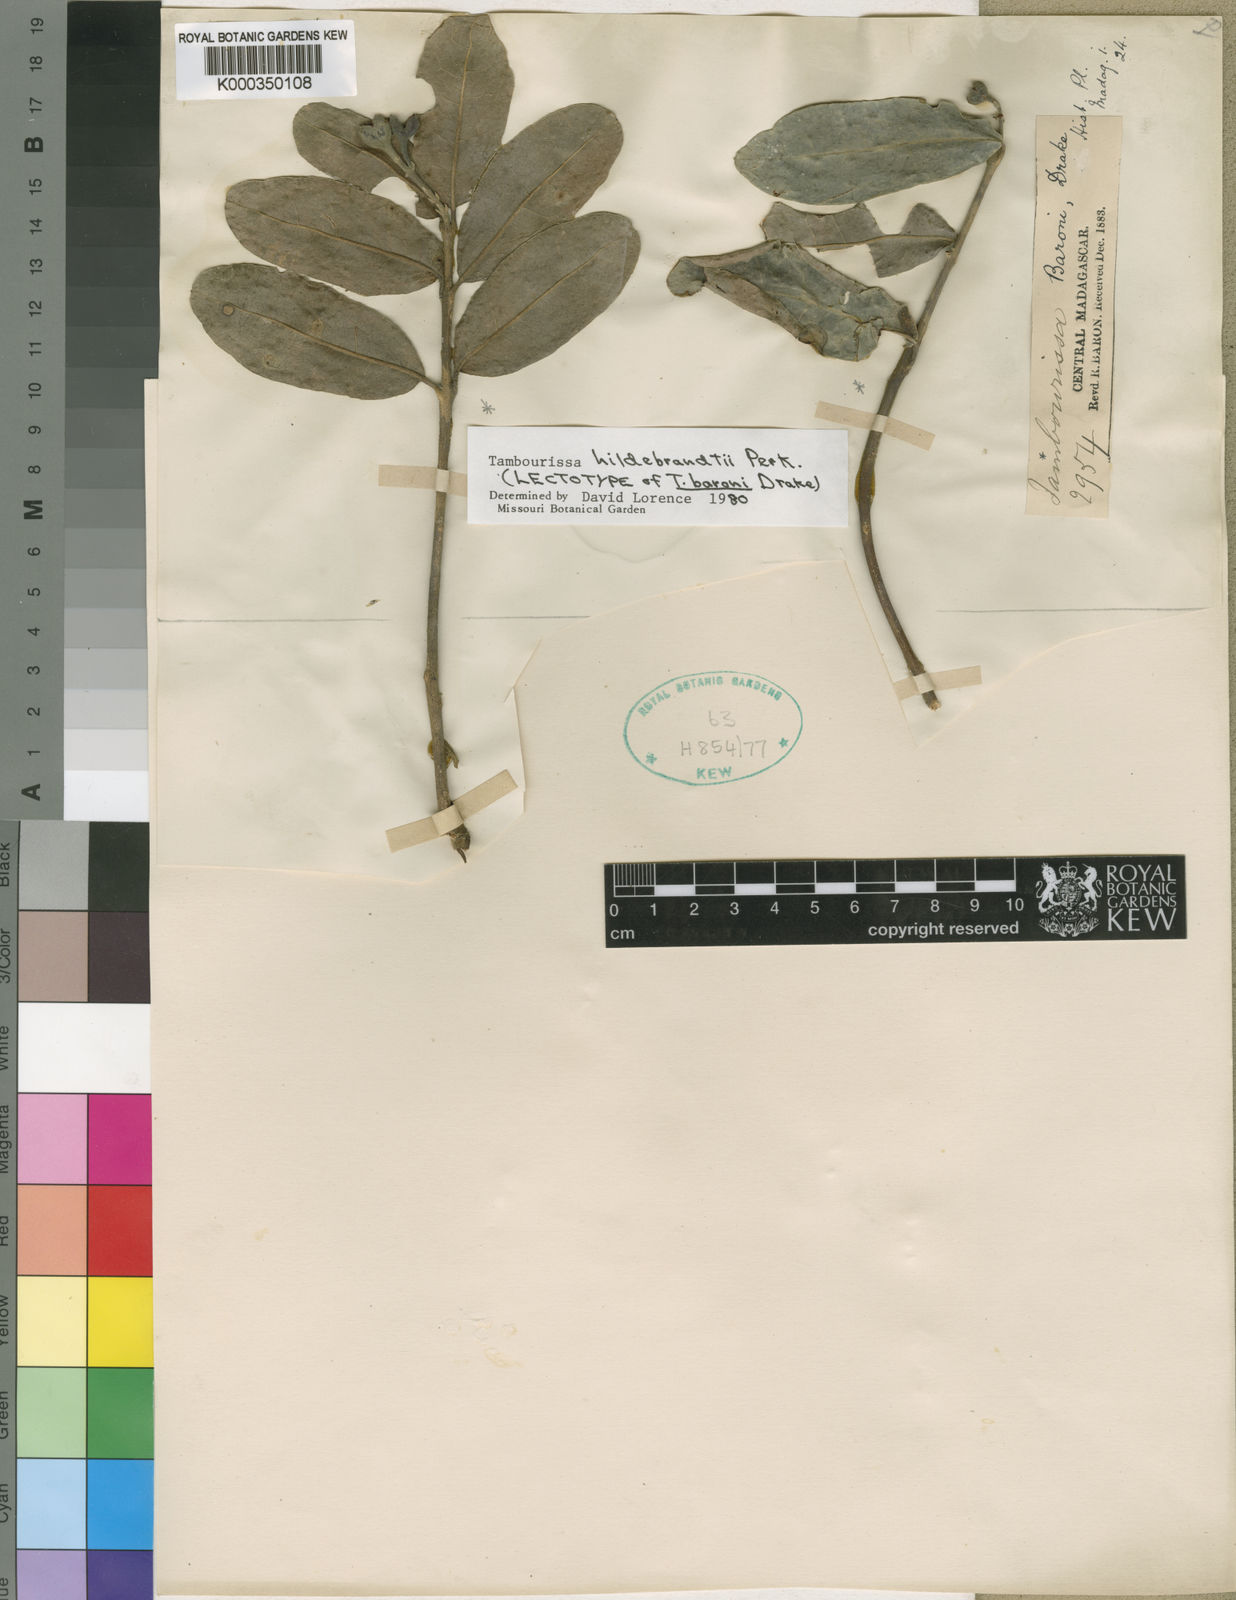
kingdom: Plantae
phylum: Tracheophyta
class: Magnoliopsida
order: Laurales
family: Monimiaceae
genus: Tambourissa
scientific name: Tambourissa hildebrandtii
